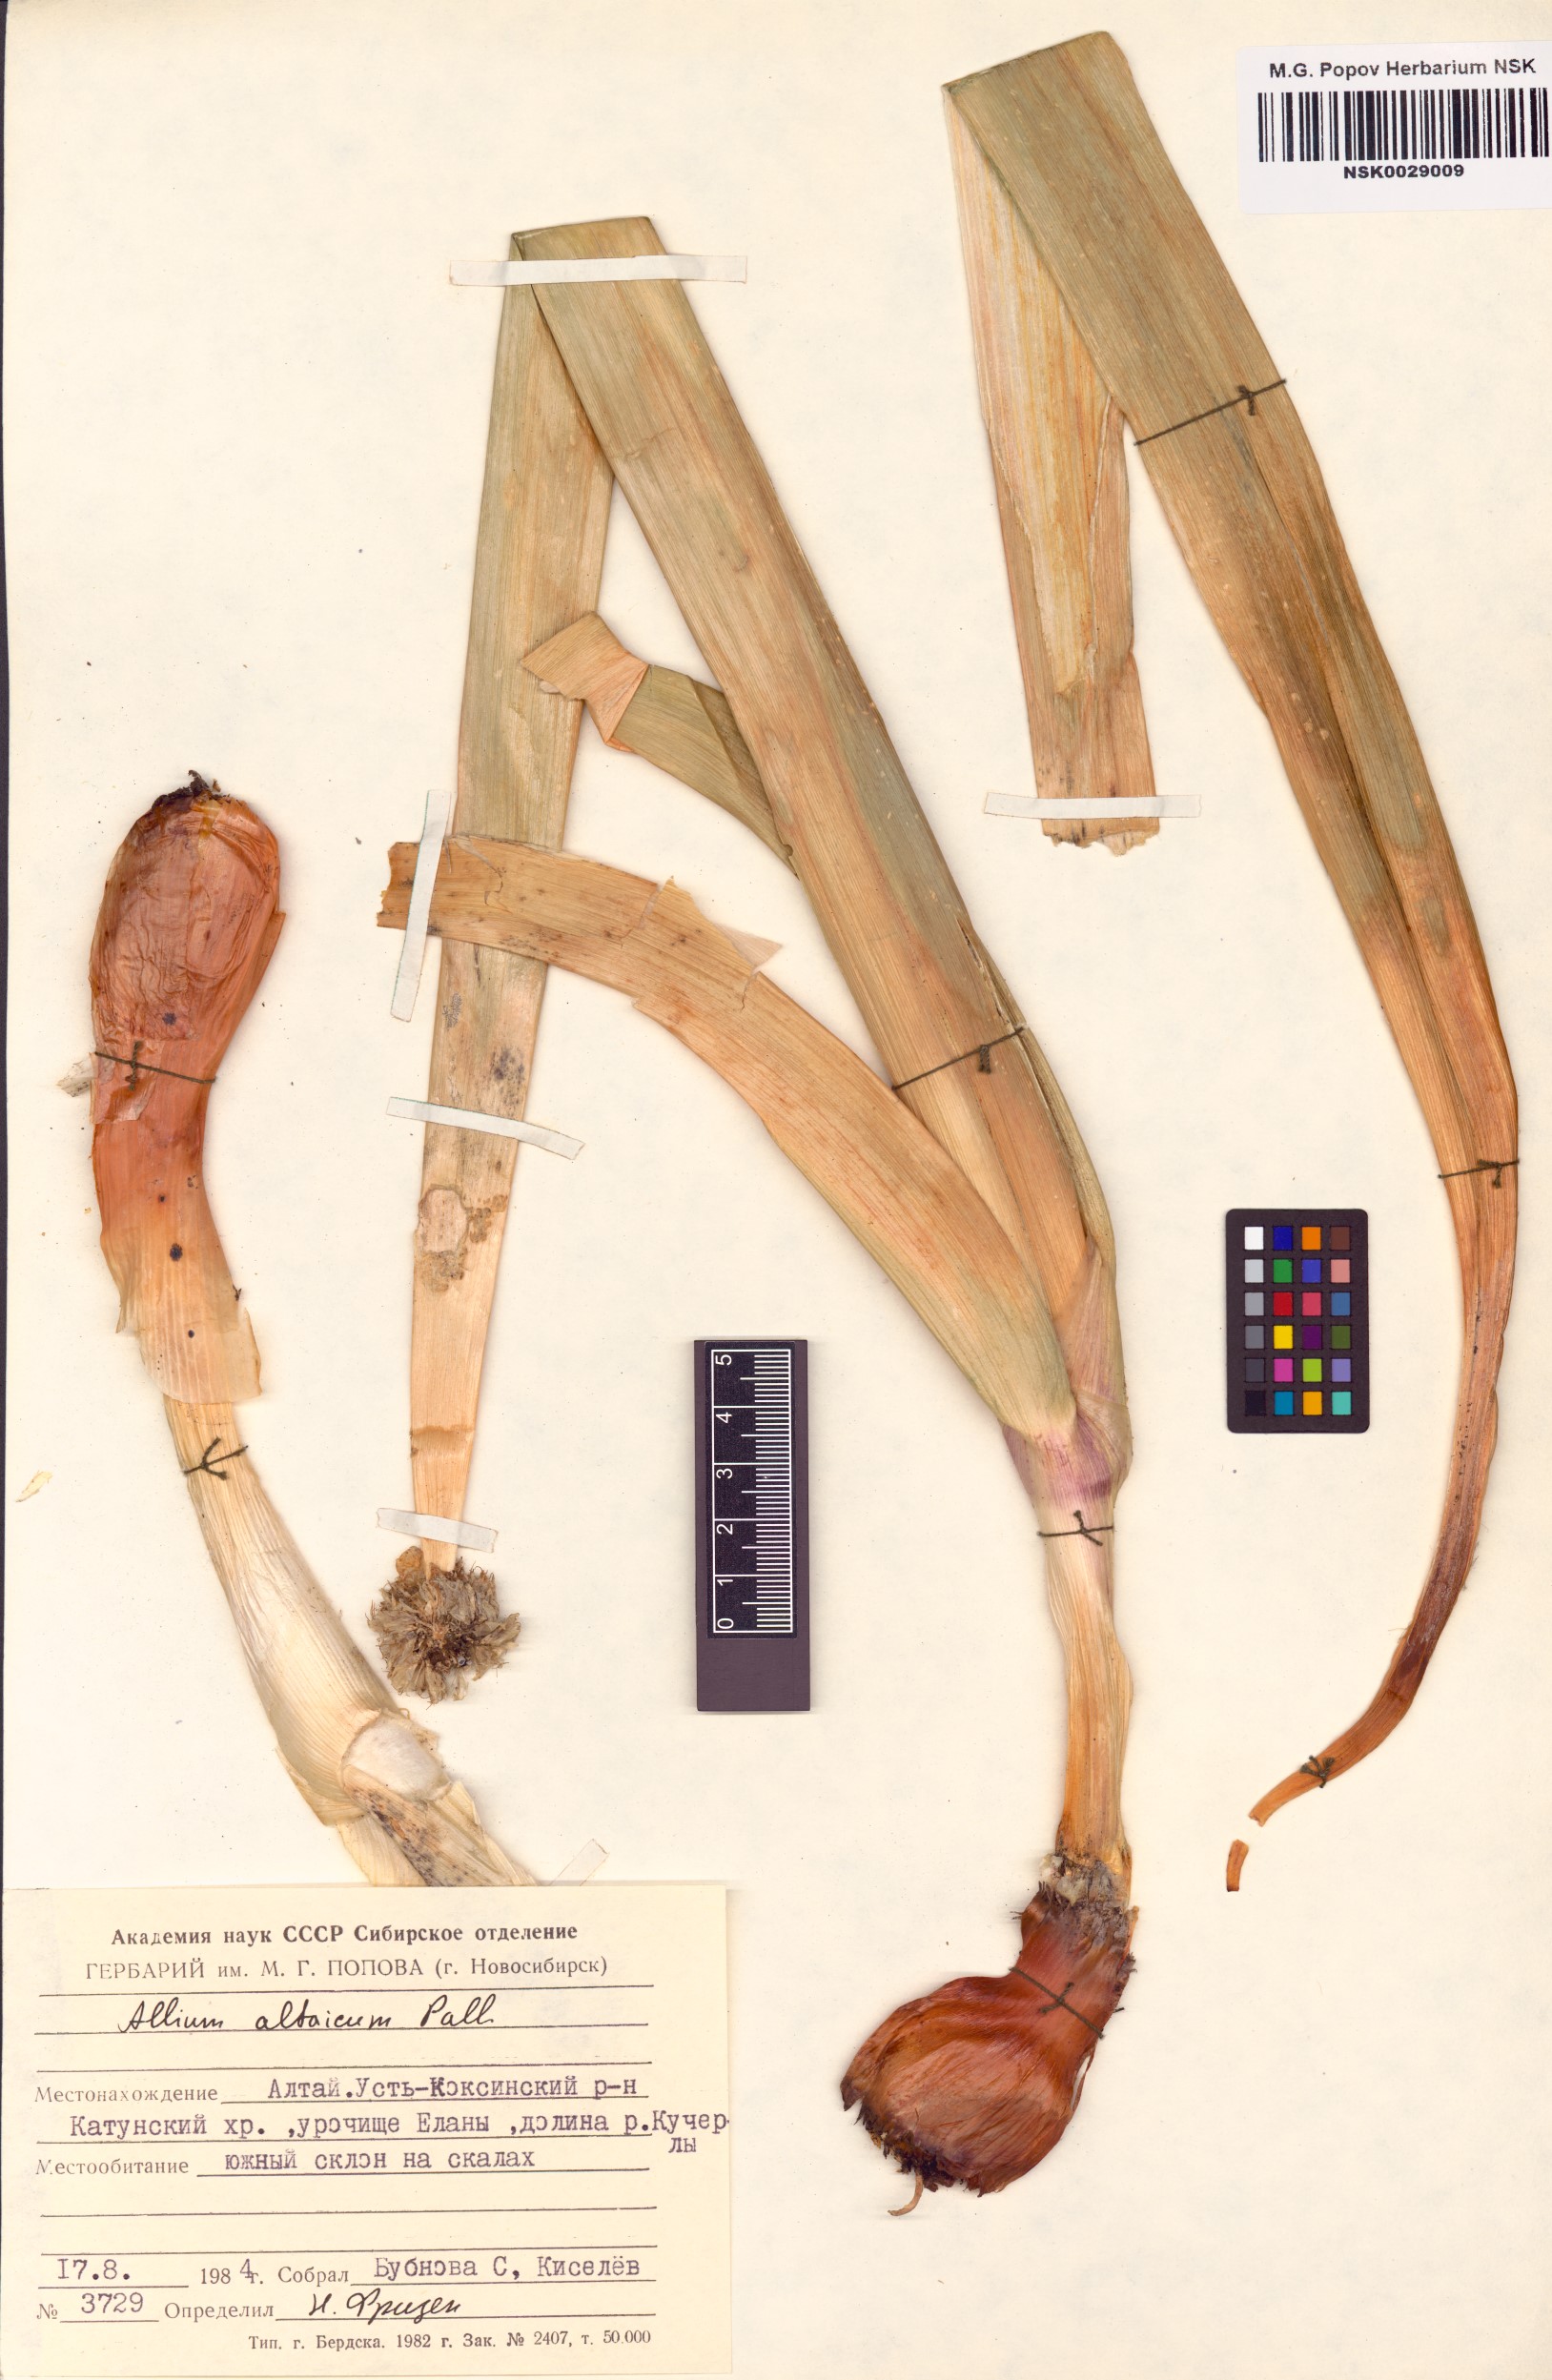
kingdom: Plantae
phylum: Tracheophyta
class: Liliopsida
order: Asparagales
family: Amaryllidaceae
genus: Allium
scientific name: Allium altaicum
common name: Altai onion
